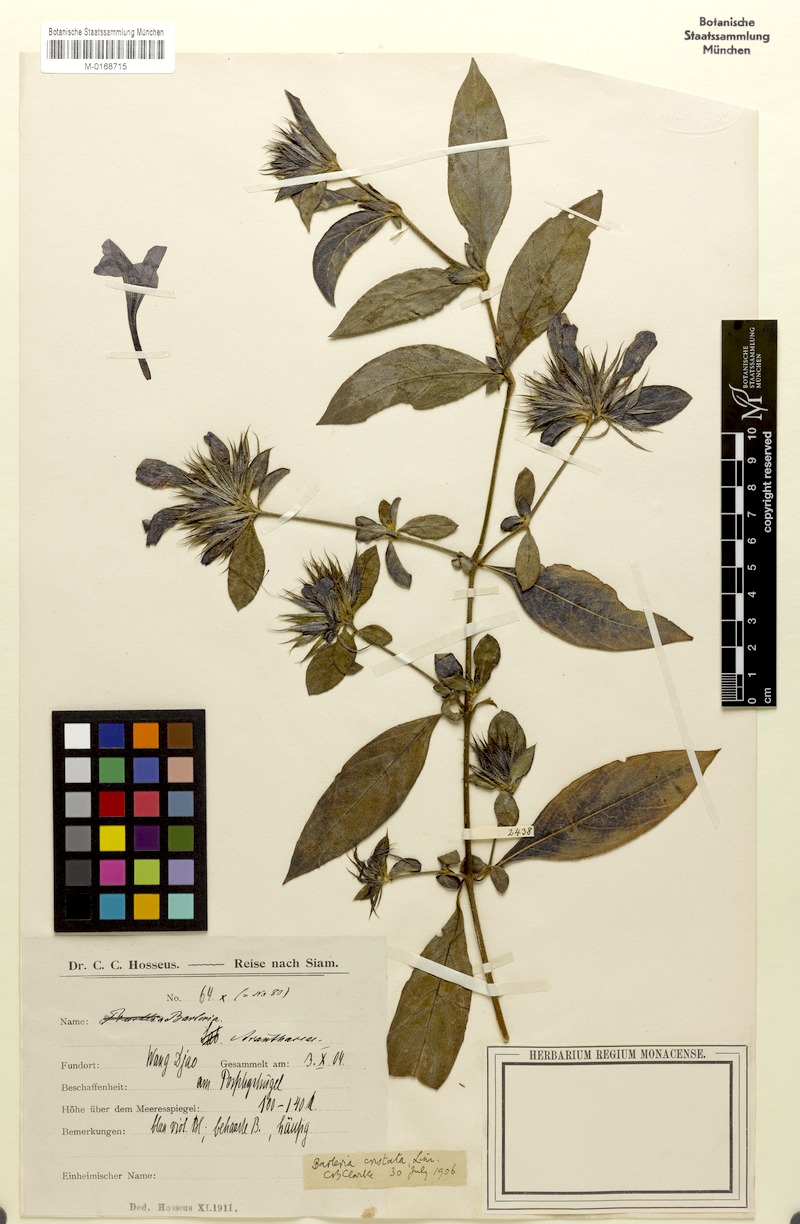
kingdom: Plantae
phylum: Tracheophyta
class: Magnoliopsida
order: Lamiales
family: Acanthaceae
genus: Barleria
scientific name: Barleria cristata
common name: Crested philippine violet
